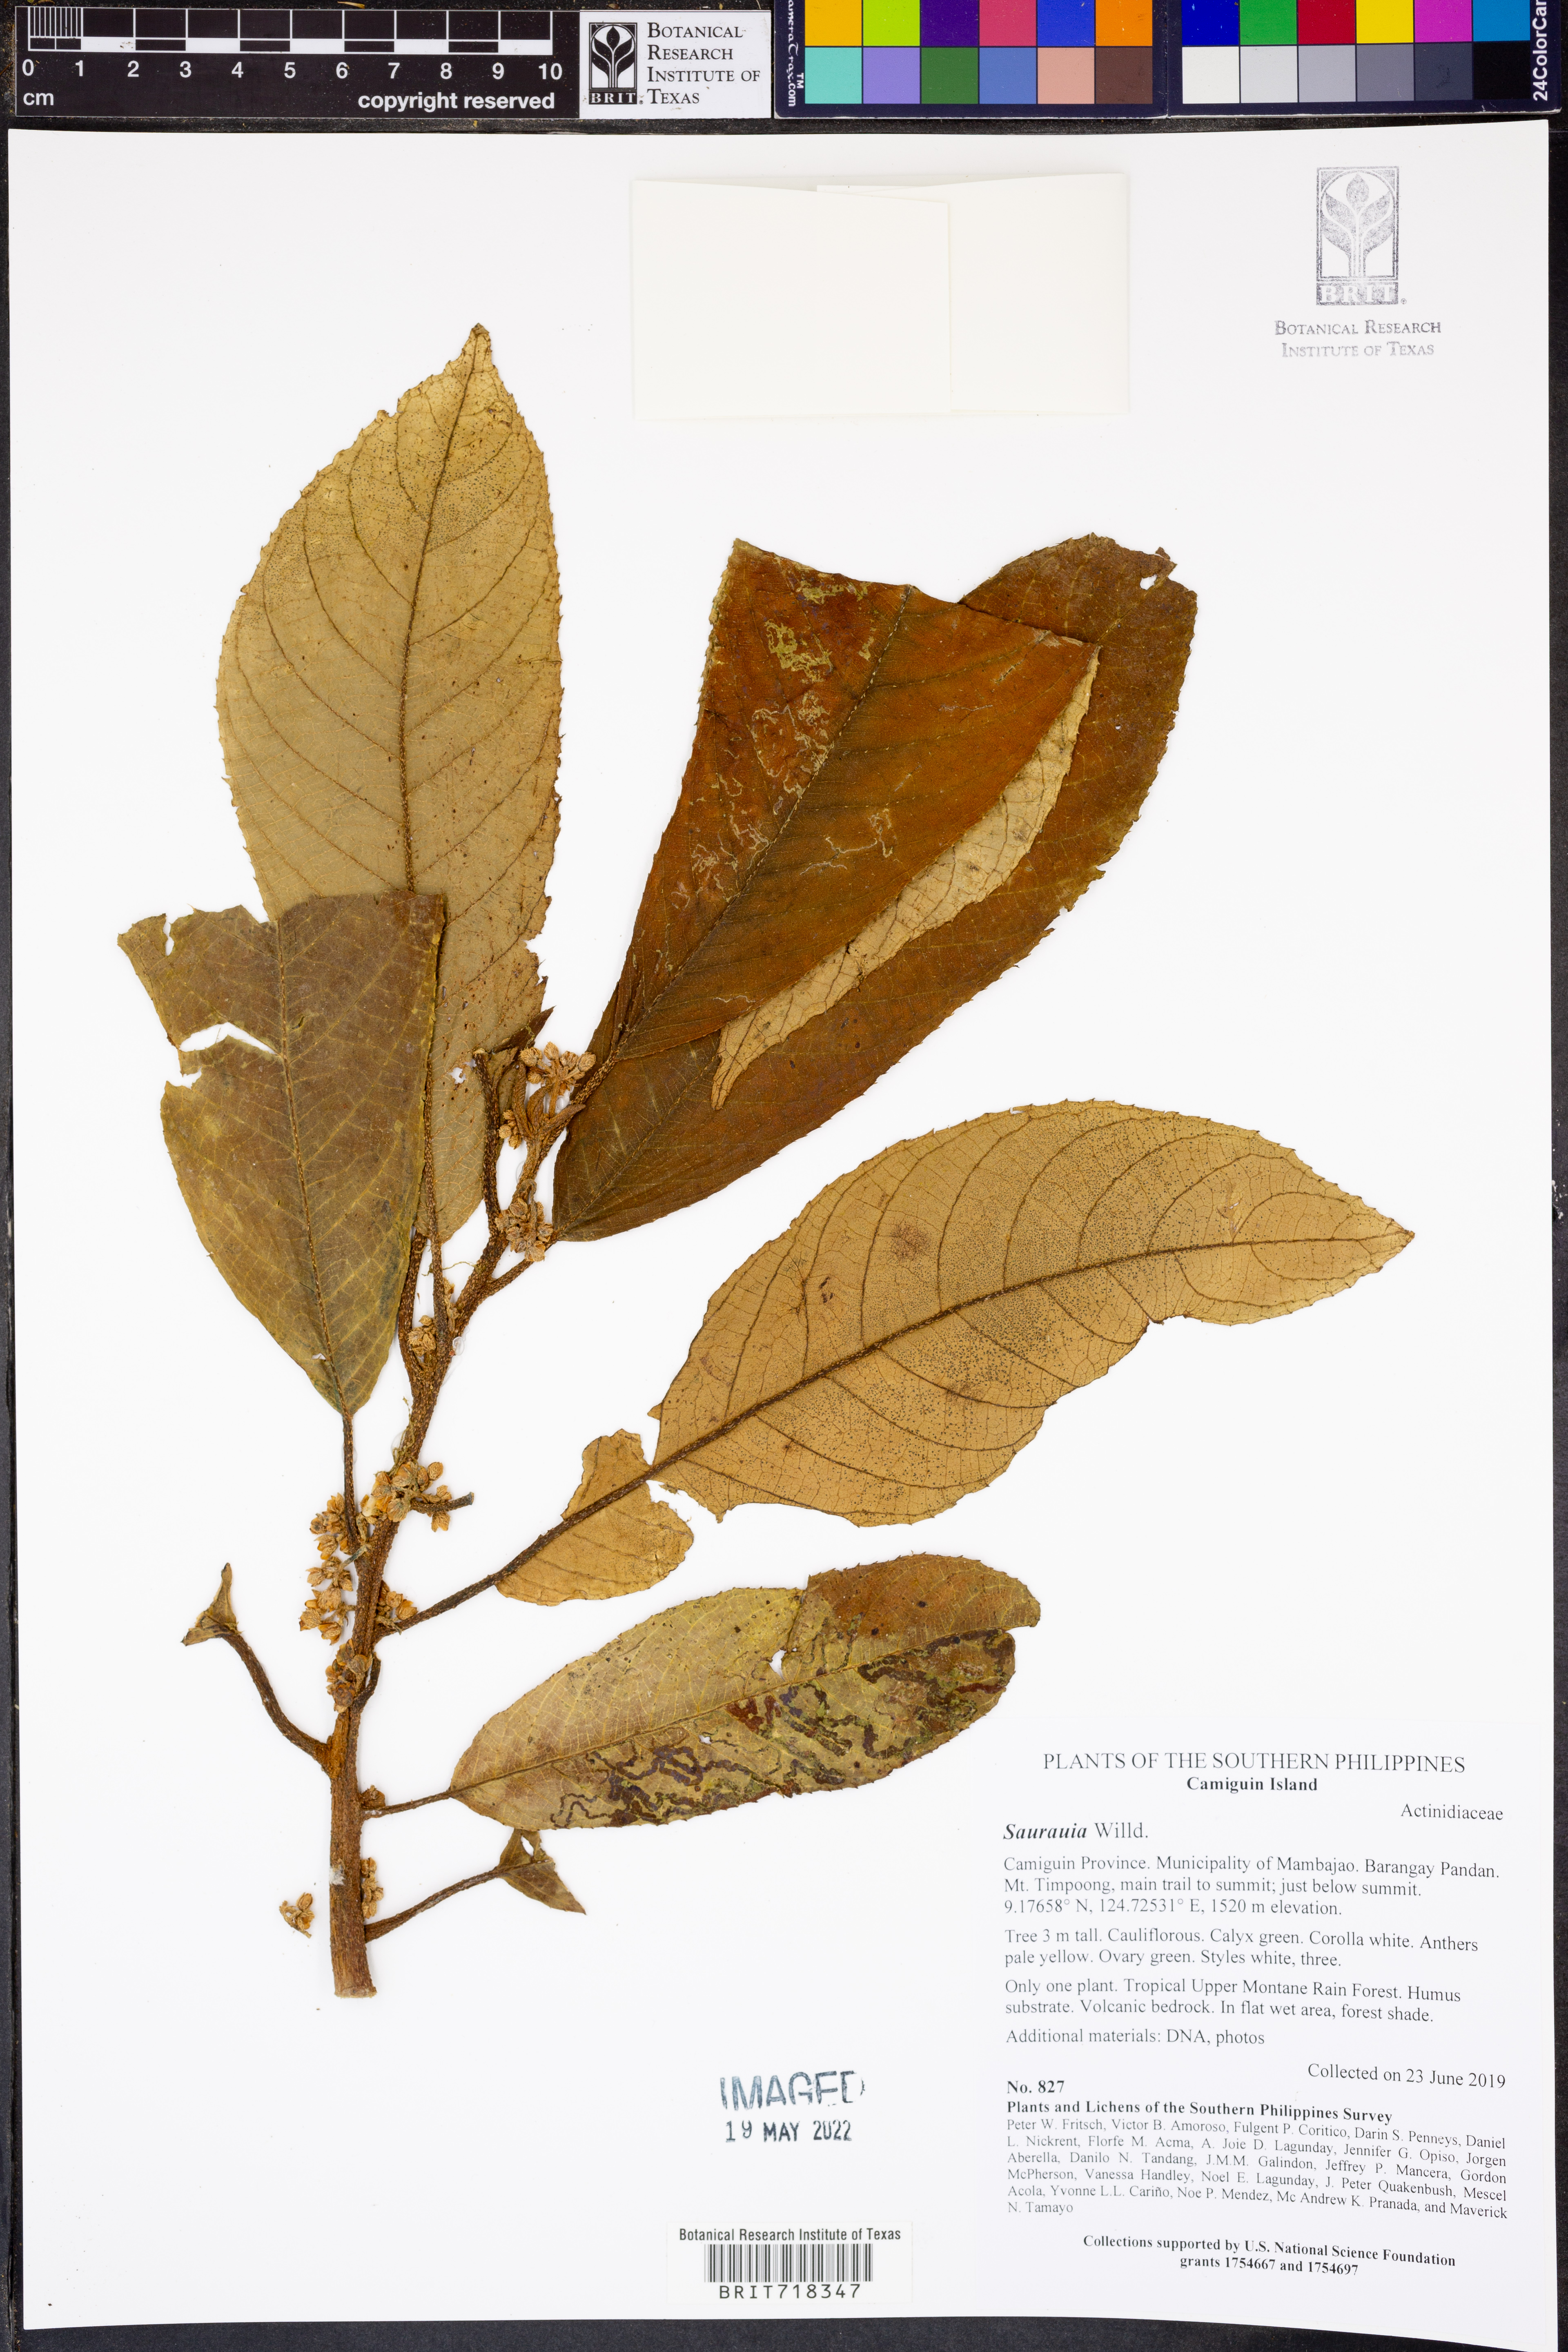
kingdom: Plantae
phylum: Tracheophyta
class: Magnoliopsida
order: Ericales
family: Actinidiaceae
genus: Saurauia
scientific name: Saurauia
